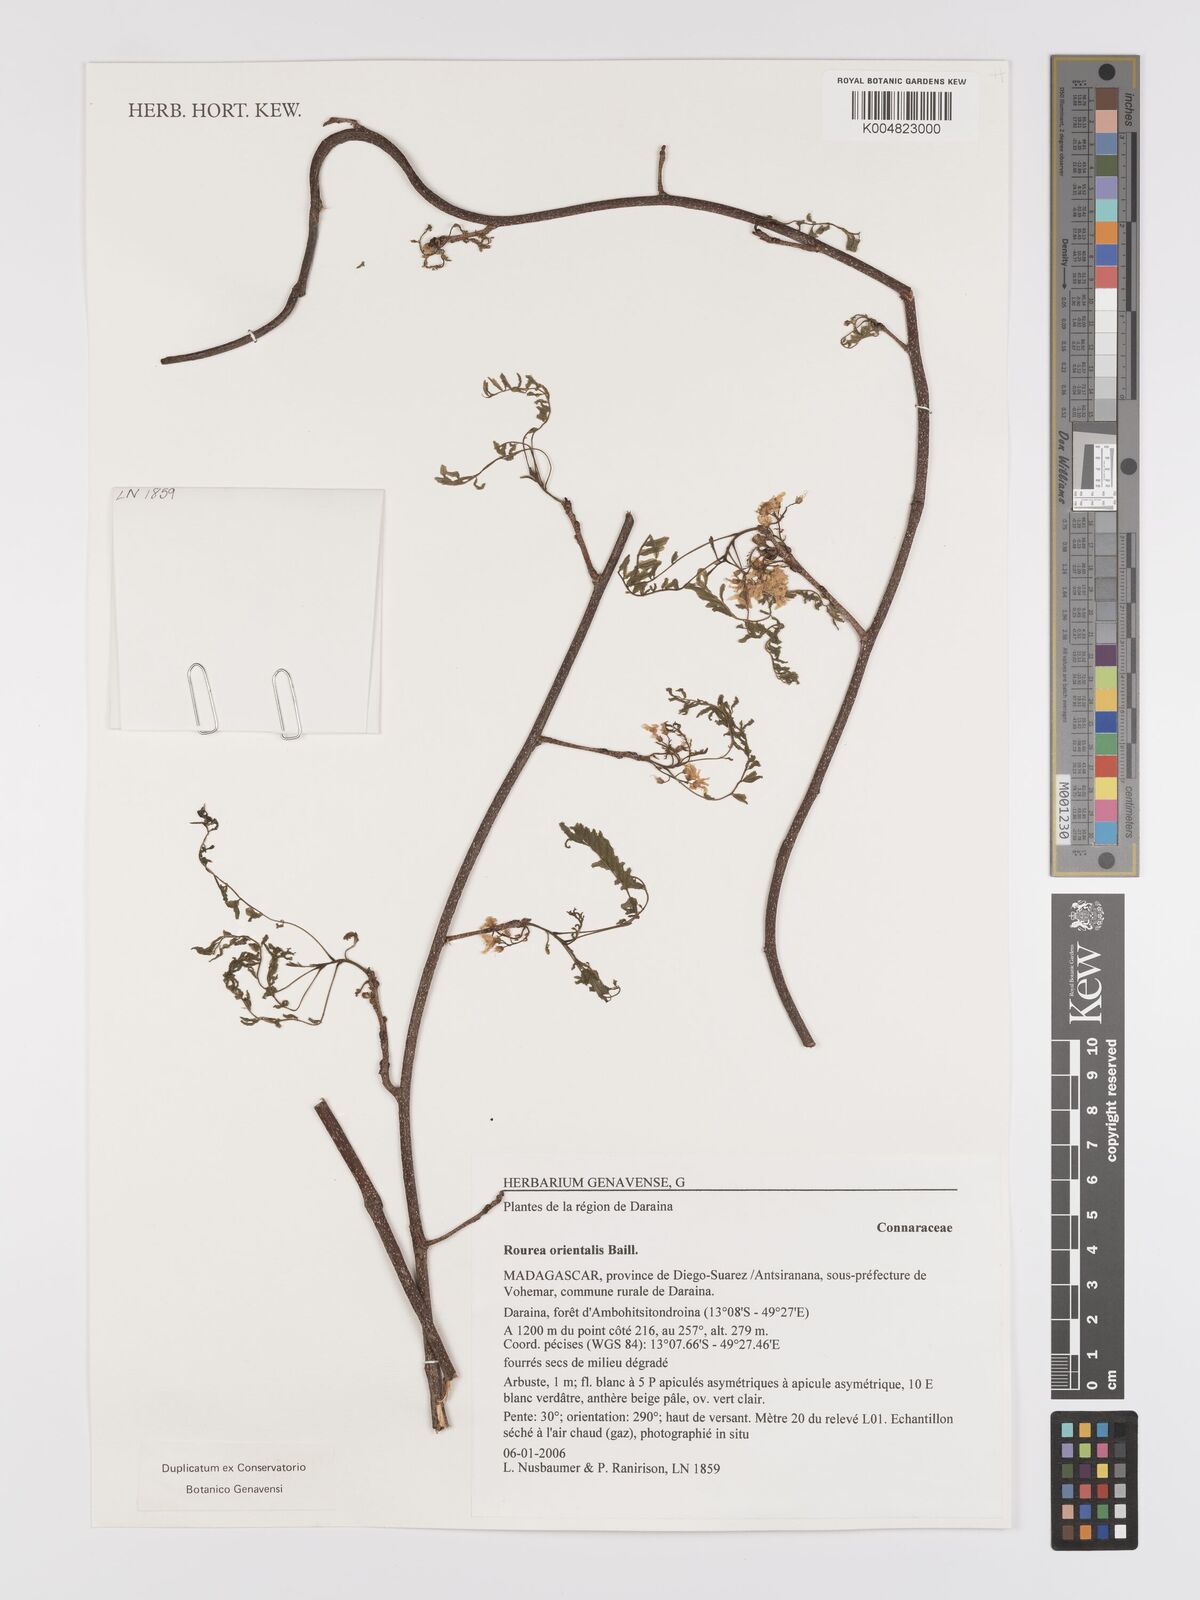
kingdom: Plantae
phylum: Tracheophyta
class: Magnoliopsida
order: Oxalidales
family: Connaraceae
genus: Rourea
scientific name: Rourea orientalis
